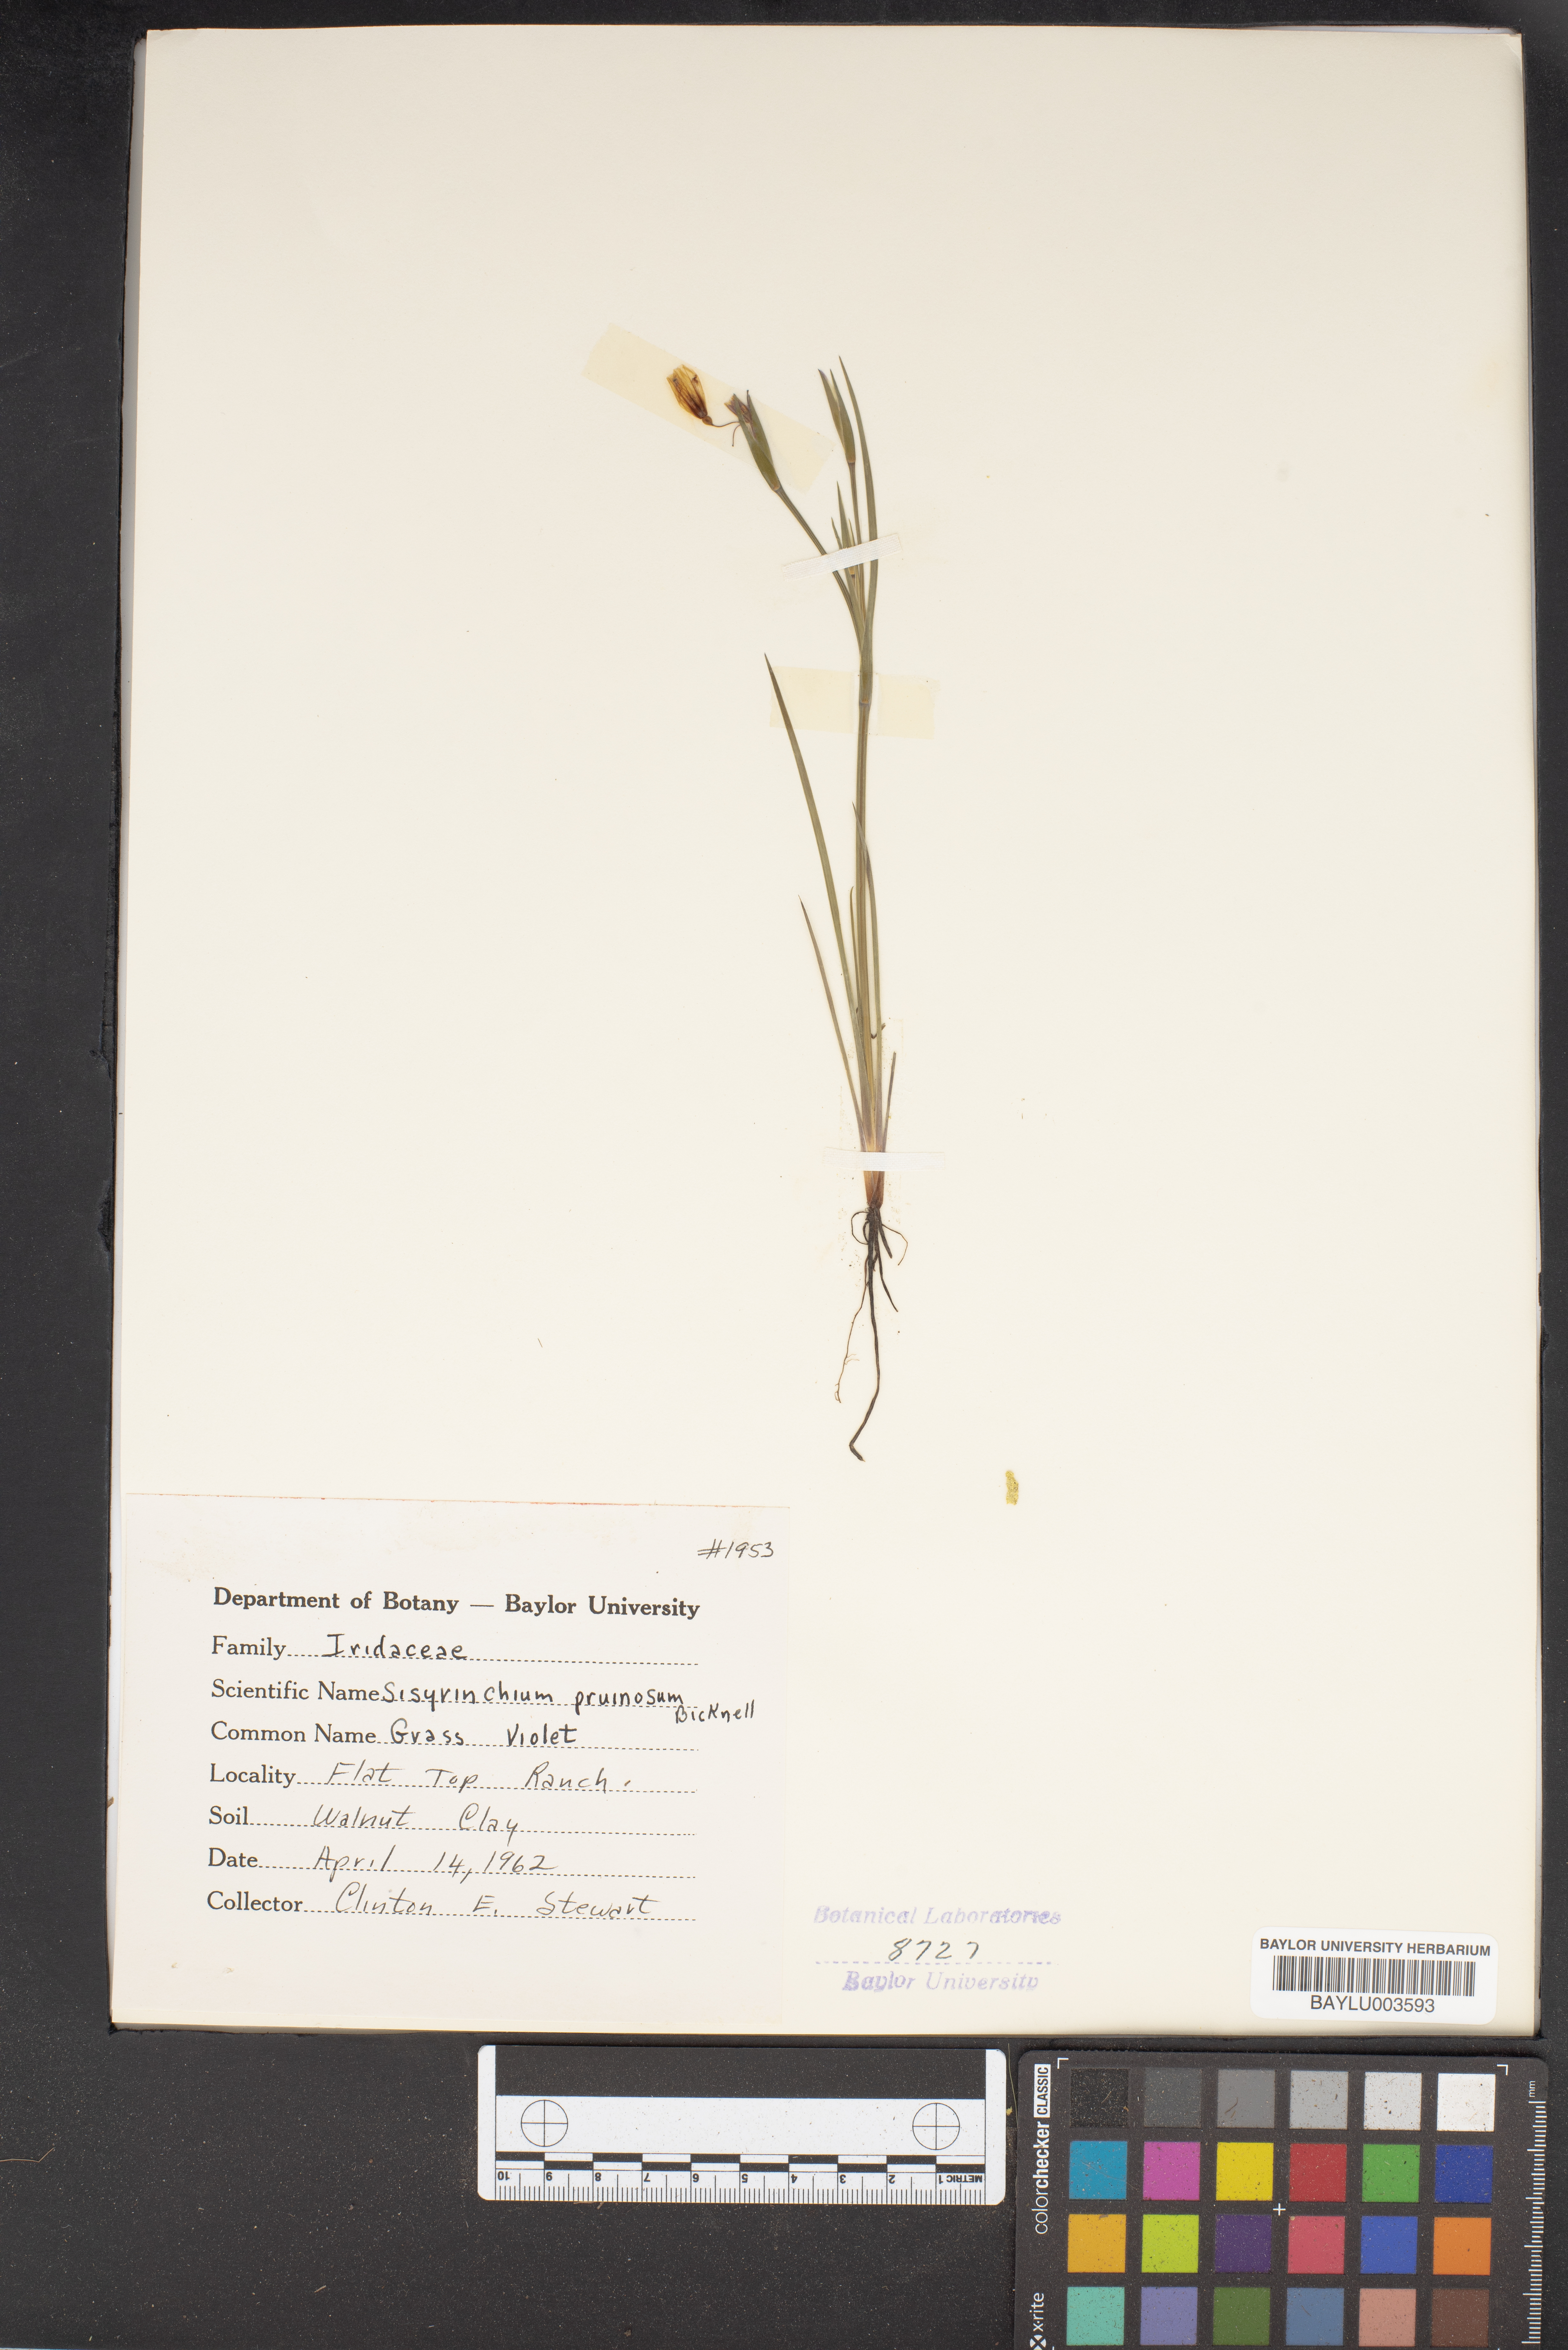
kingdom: Plantae
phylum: Tracheophyta
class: Liliopsida
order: Asparagales
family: Iridaceae
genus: Sisyrinchium
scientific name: Sisyrinchium pruinosum
